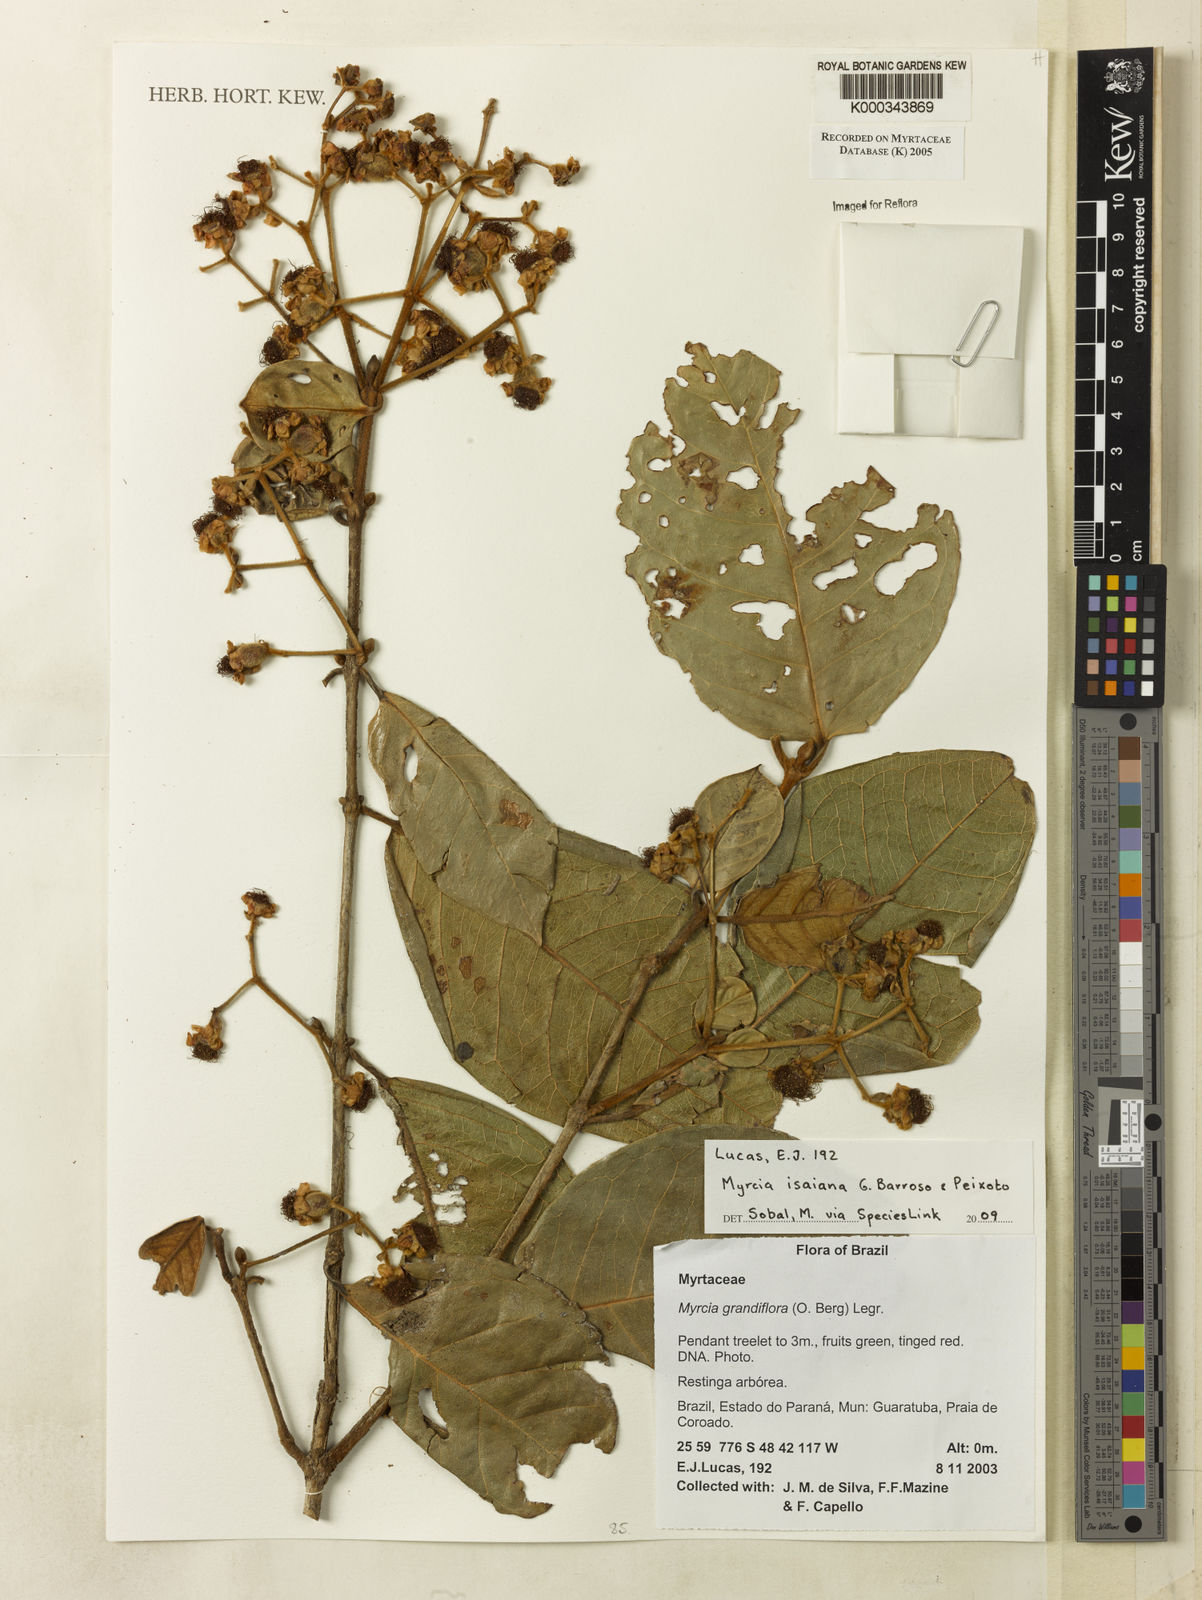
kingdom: Plantae
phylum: Tracheophyta
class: Magnoliopsida
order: Myrtales
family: Myrtaceae
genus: Myrcia
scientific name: Myrcia bathisiifolia
